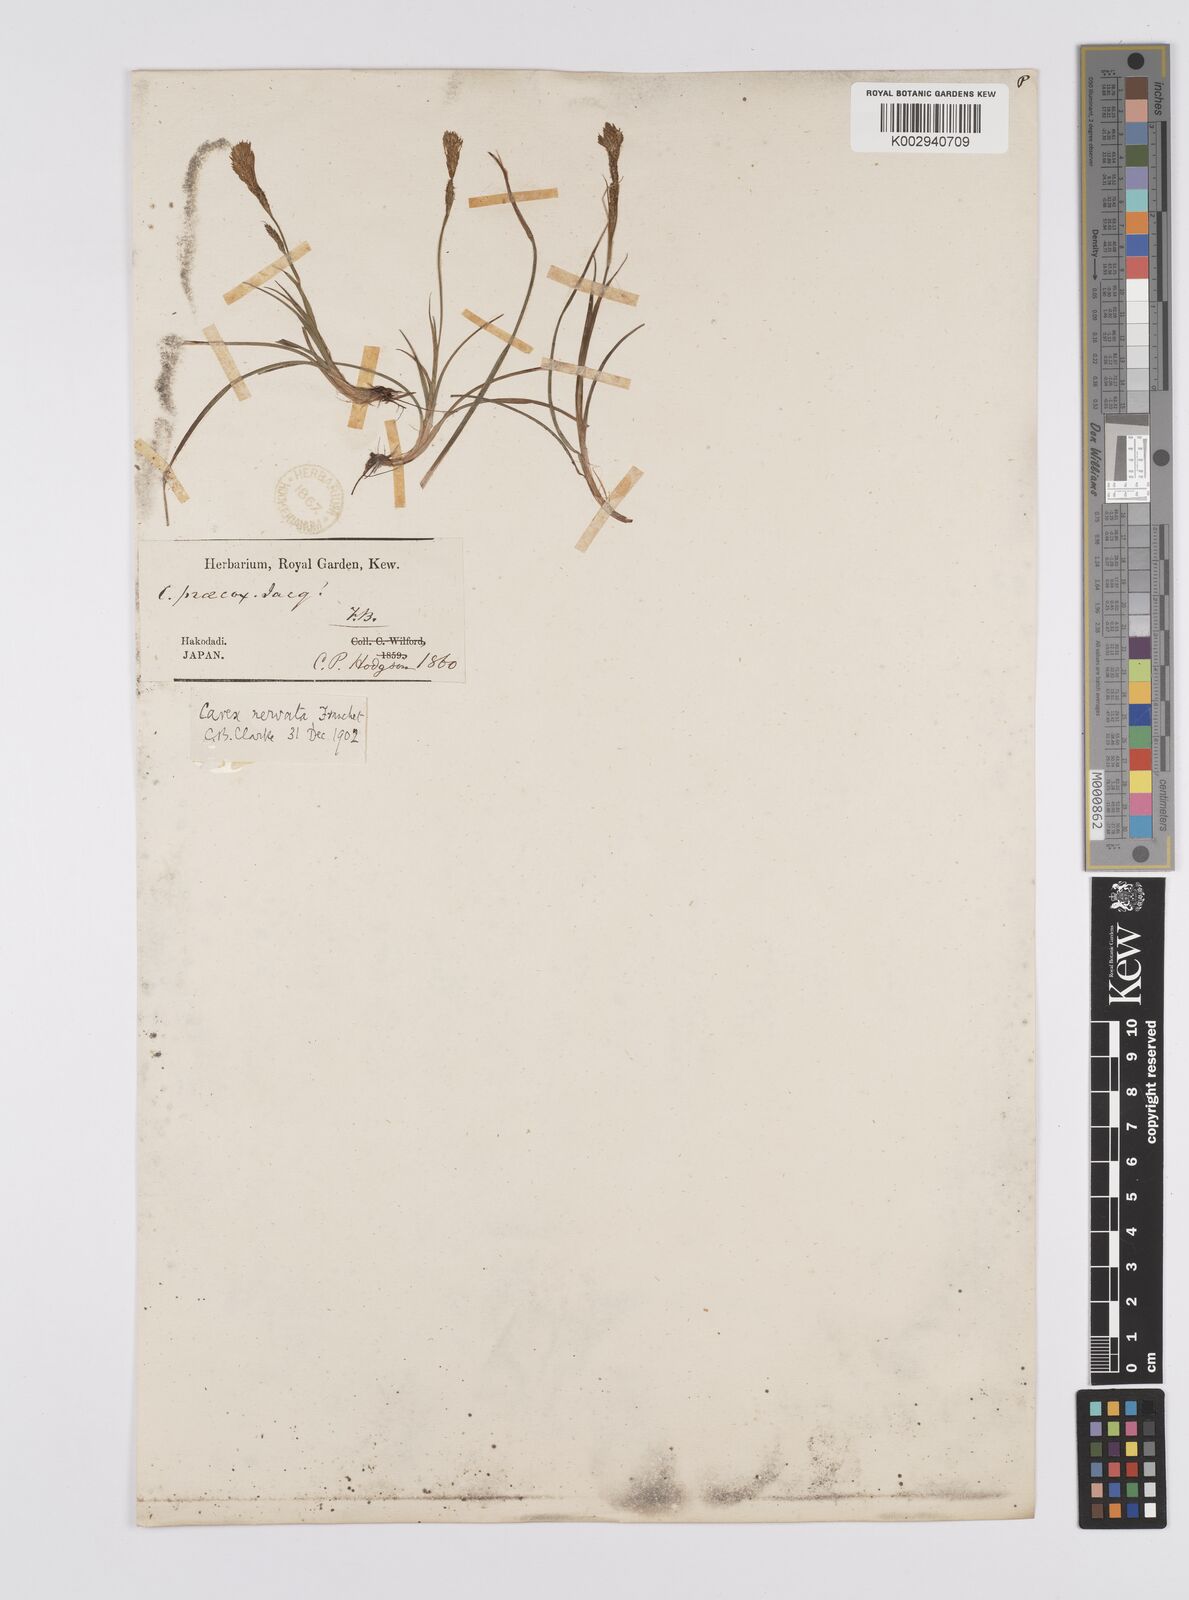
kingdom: Plantae
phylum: Tracheophyta
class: Liliopsida
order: Poales
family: Cyperaceae
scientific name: Cyperaceae
